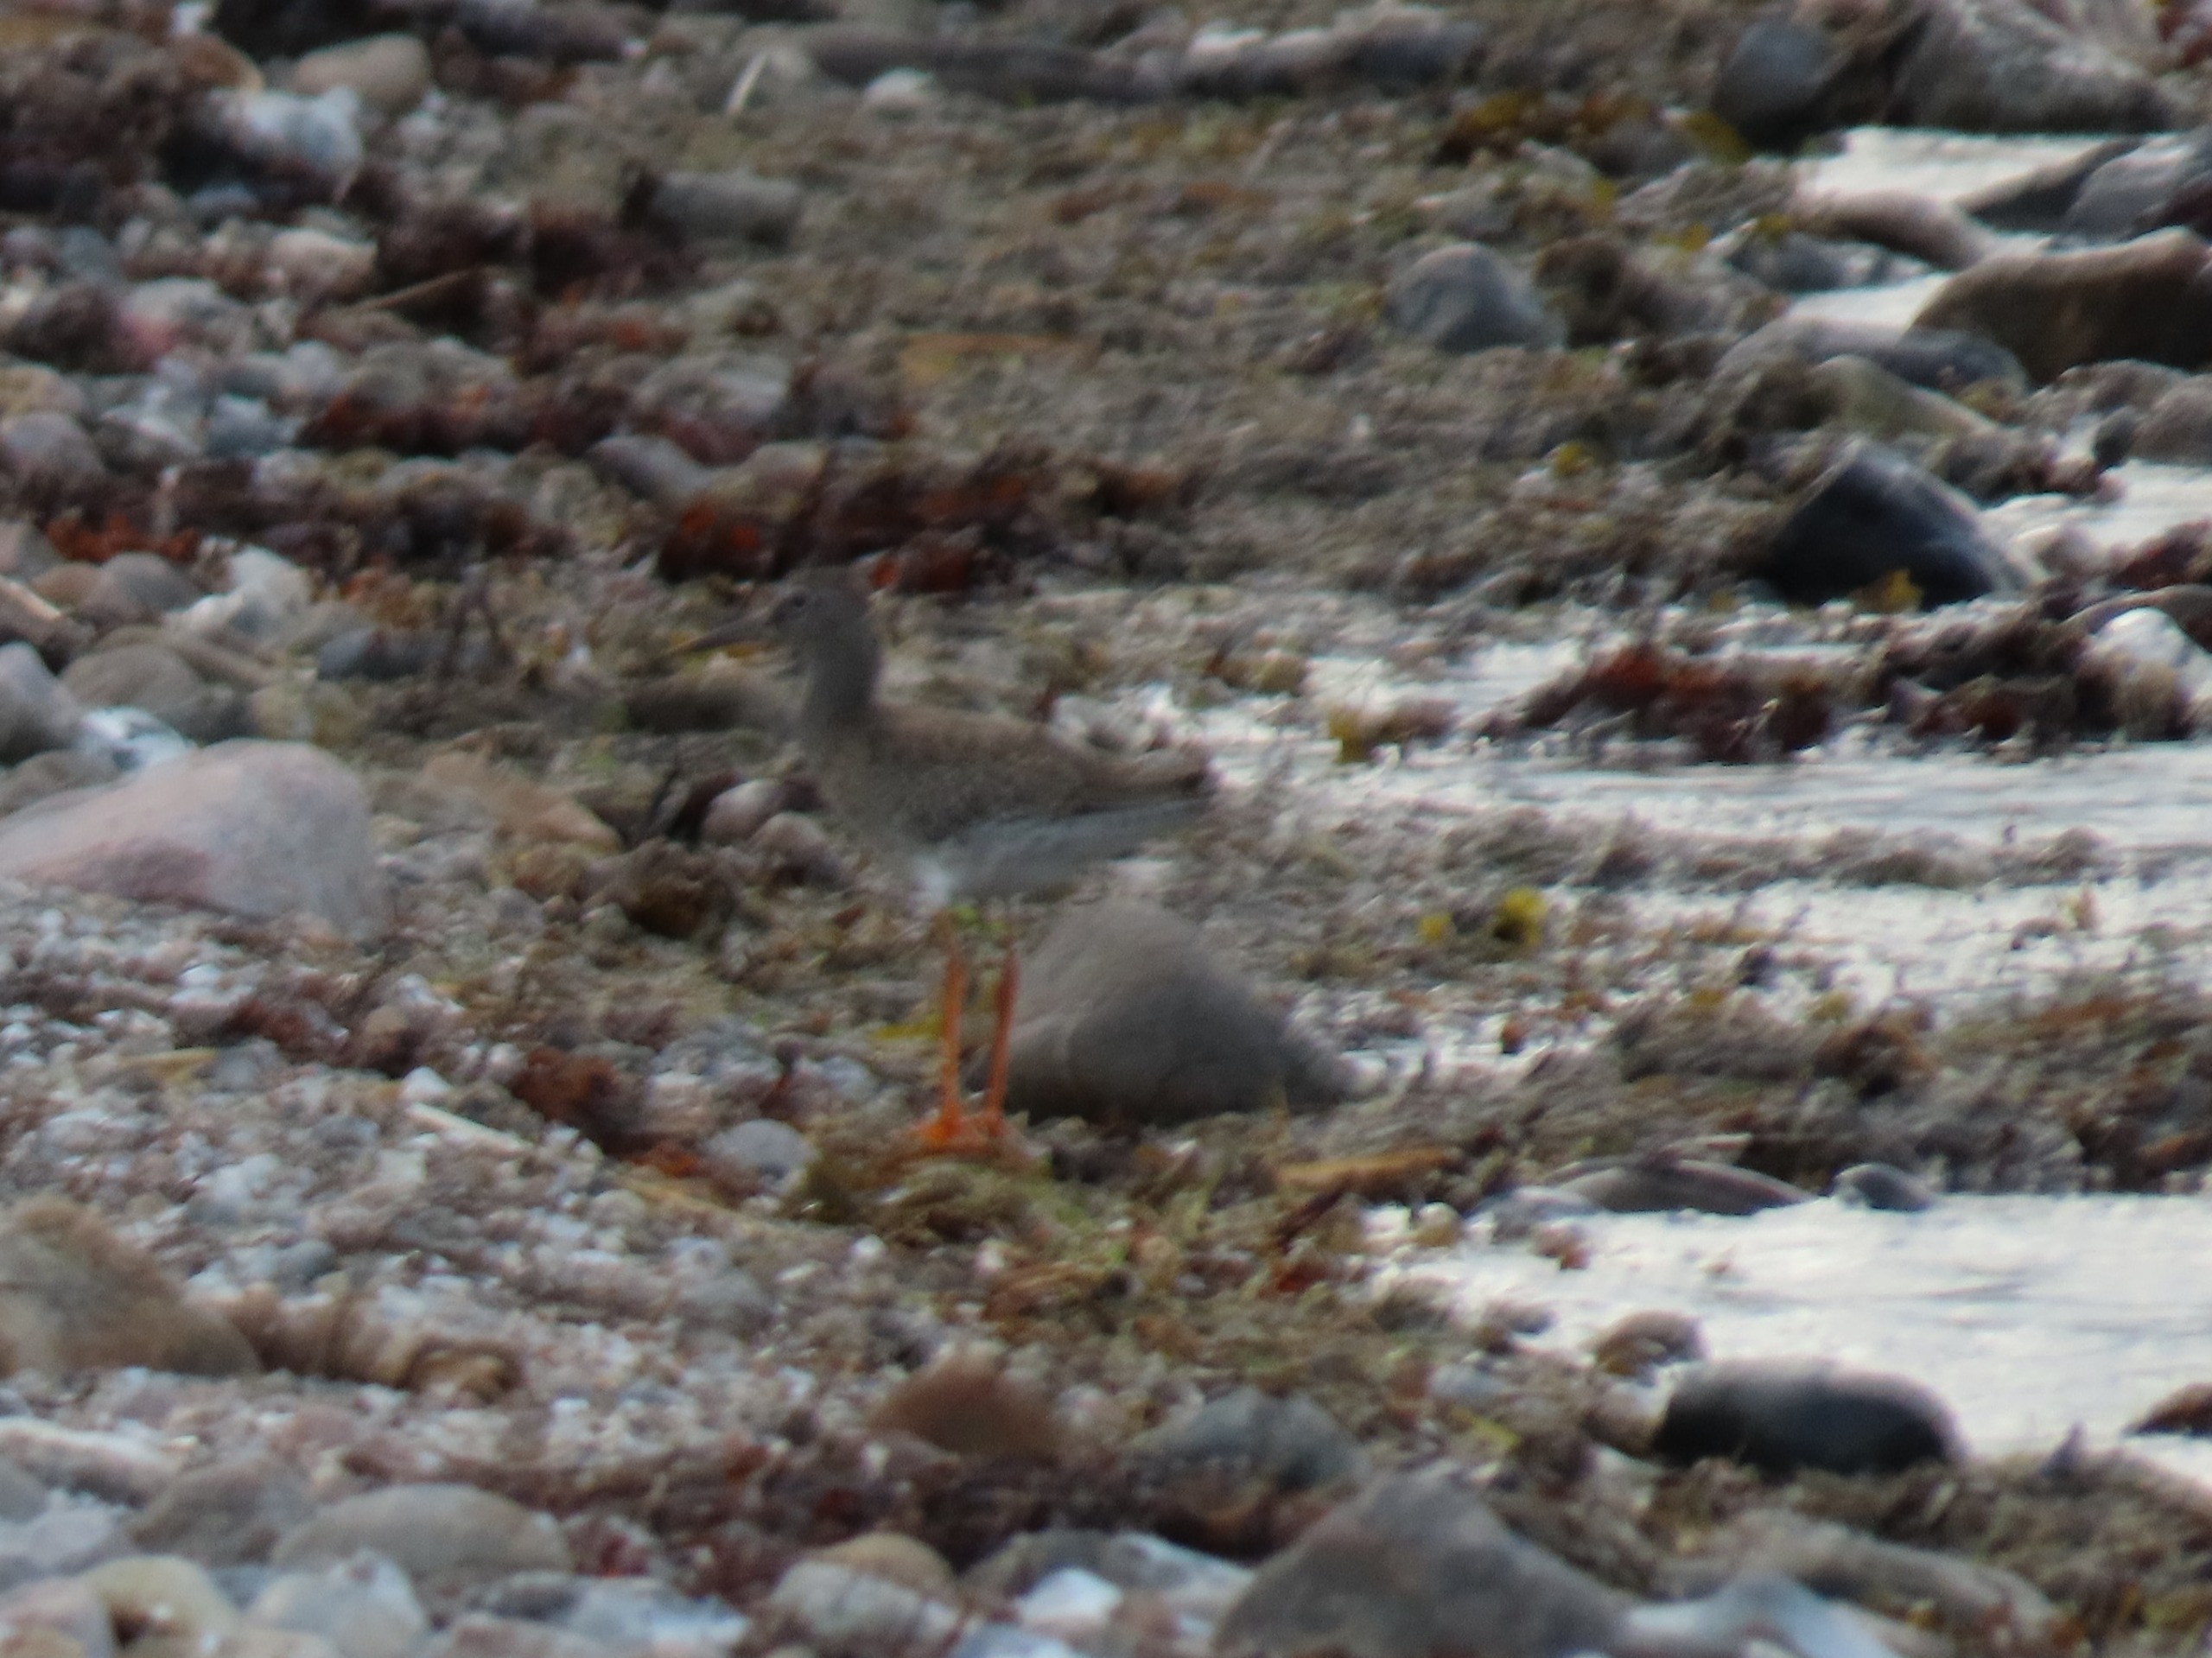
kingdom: Animalia
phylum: Chordata
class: Aves
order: Charadriiformes
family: Scolopacidae
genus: Tringa
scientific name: Tringa totanus
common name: Rødben
